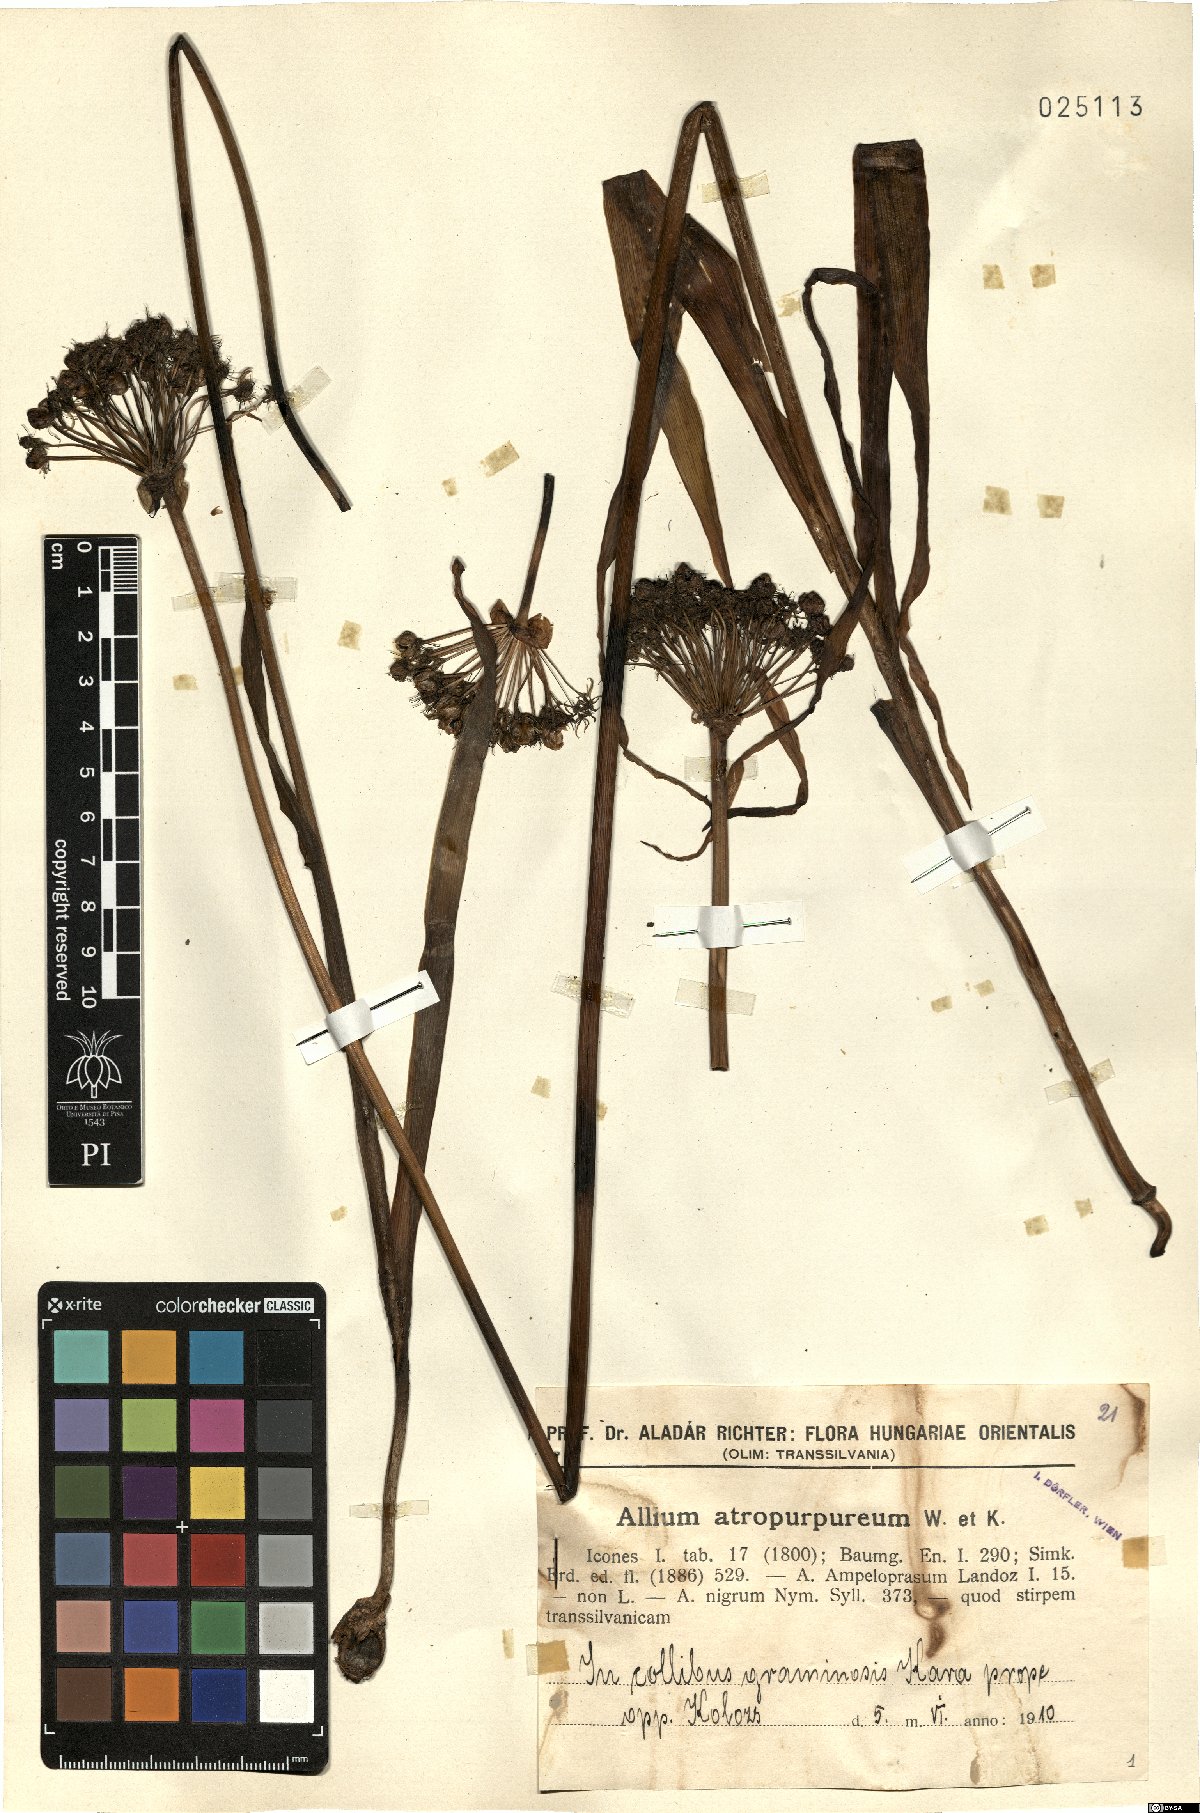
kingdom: Plantae
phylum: Tracheophyta
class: Liliopsida
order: Asparagales
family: Amaryllidaceae
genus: Allium
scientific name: Allium atropurpureum
